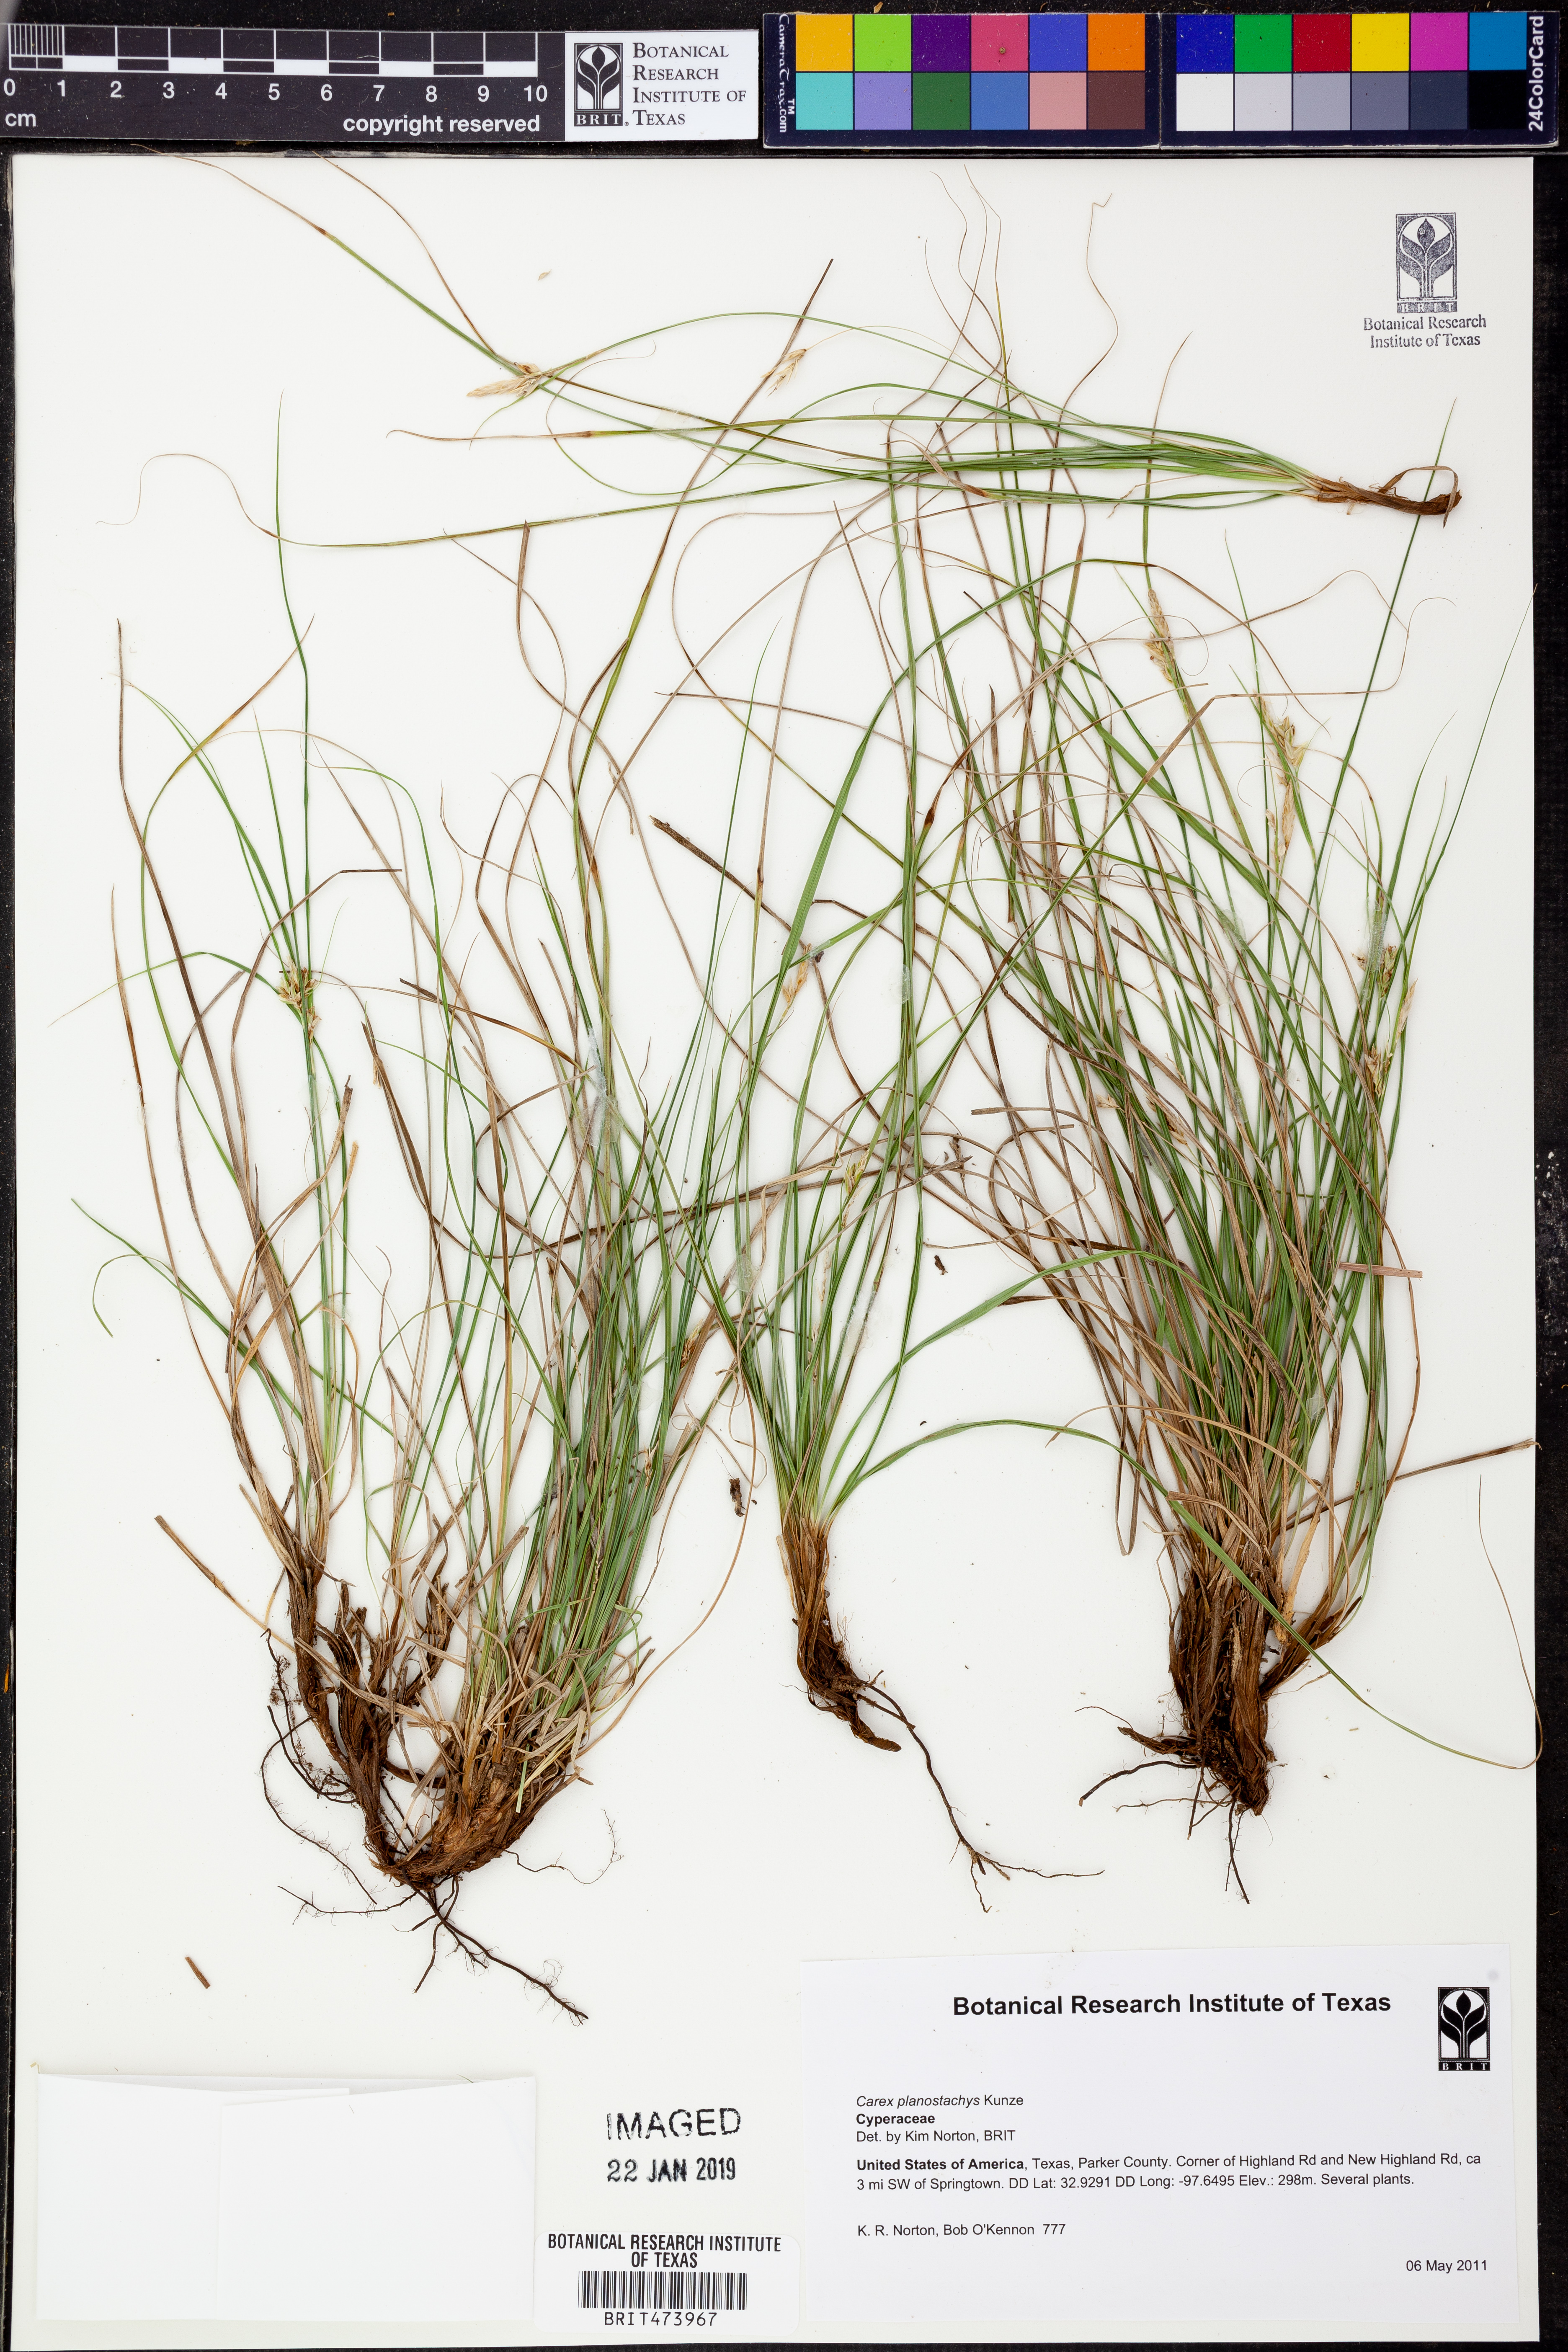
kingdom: Plantae
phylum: Tracheophyta
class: Liliopsida
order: Poales
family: Cyperaceae
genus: Carex
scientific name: Carex planostachys
